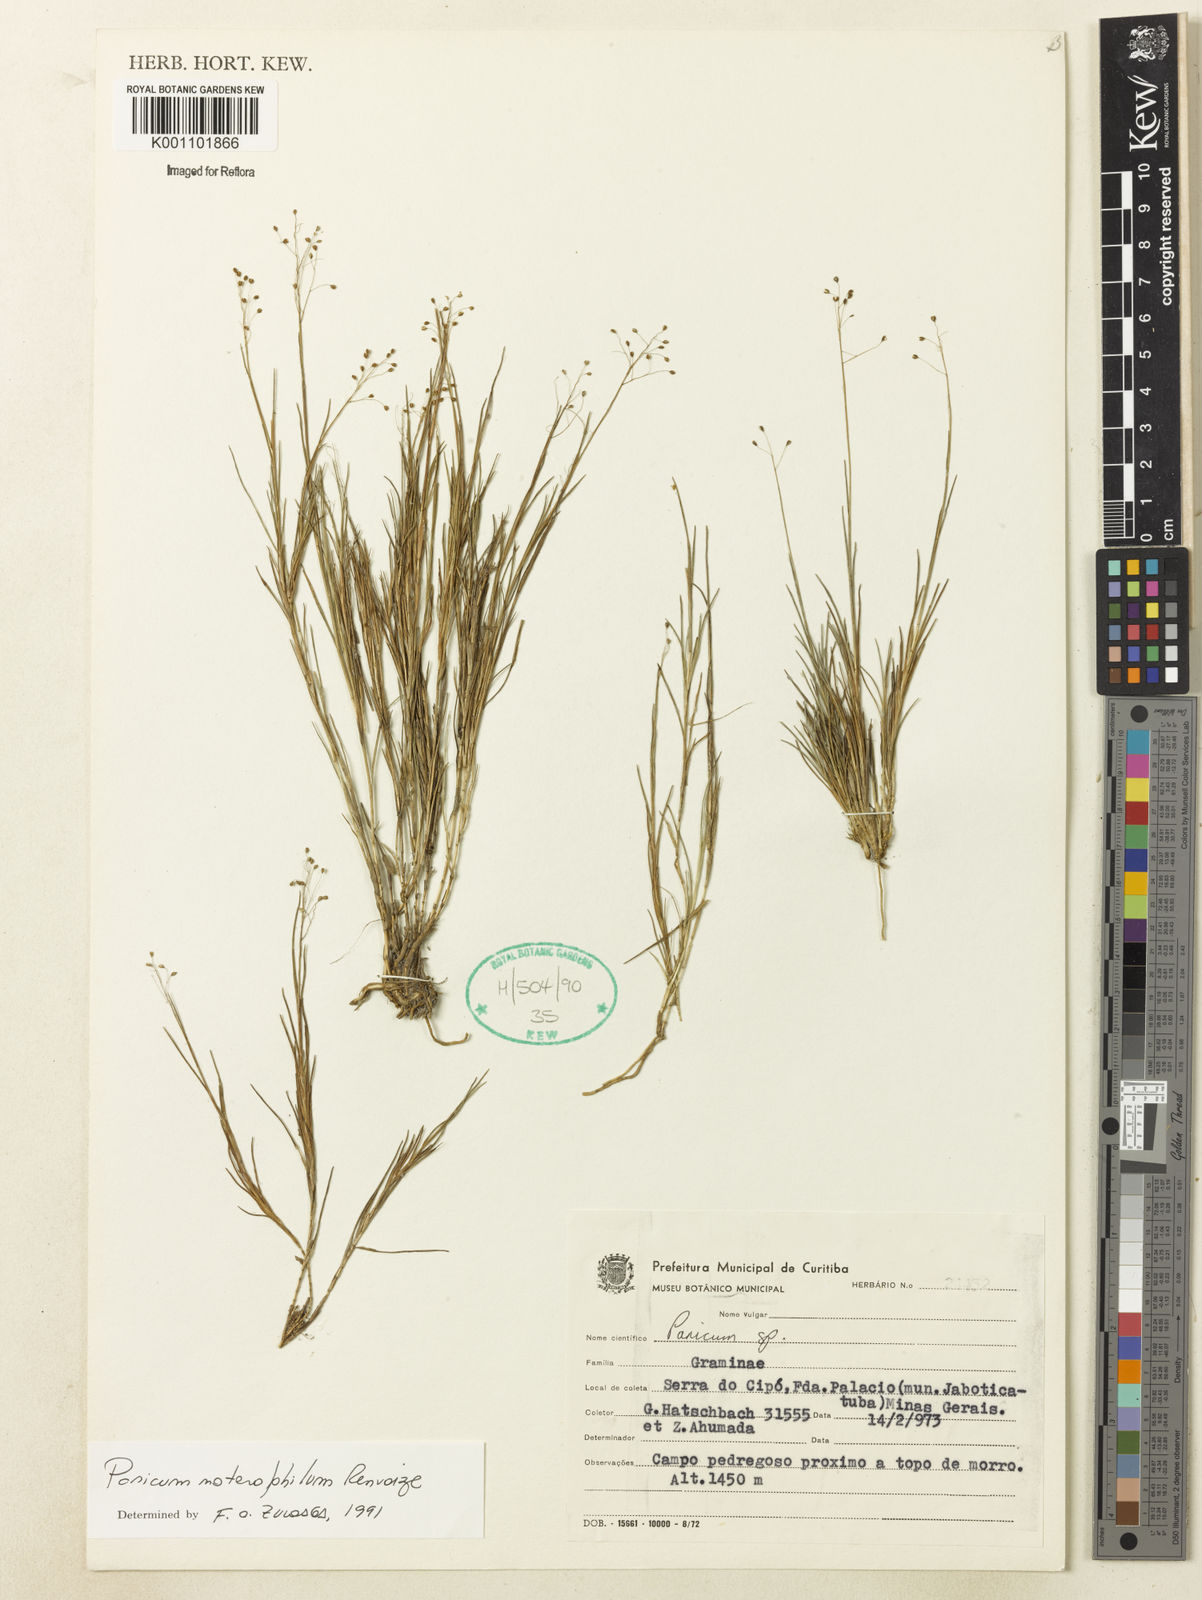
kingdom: Plantae
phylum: Tracheophyta
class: Liliopsida
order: Poales
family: Poaceae
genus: Trichanthecium
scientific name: Trichanthecium noterophilum
